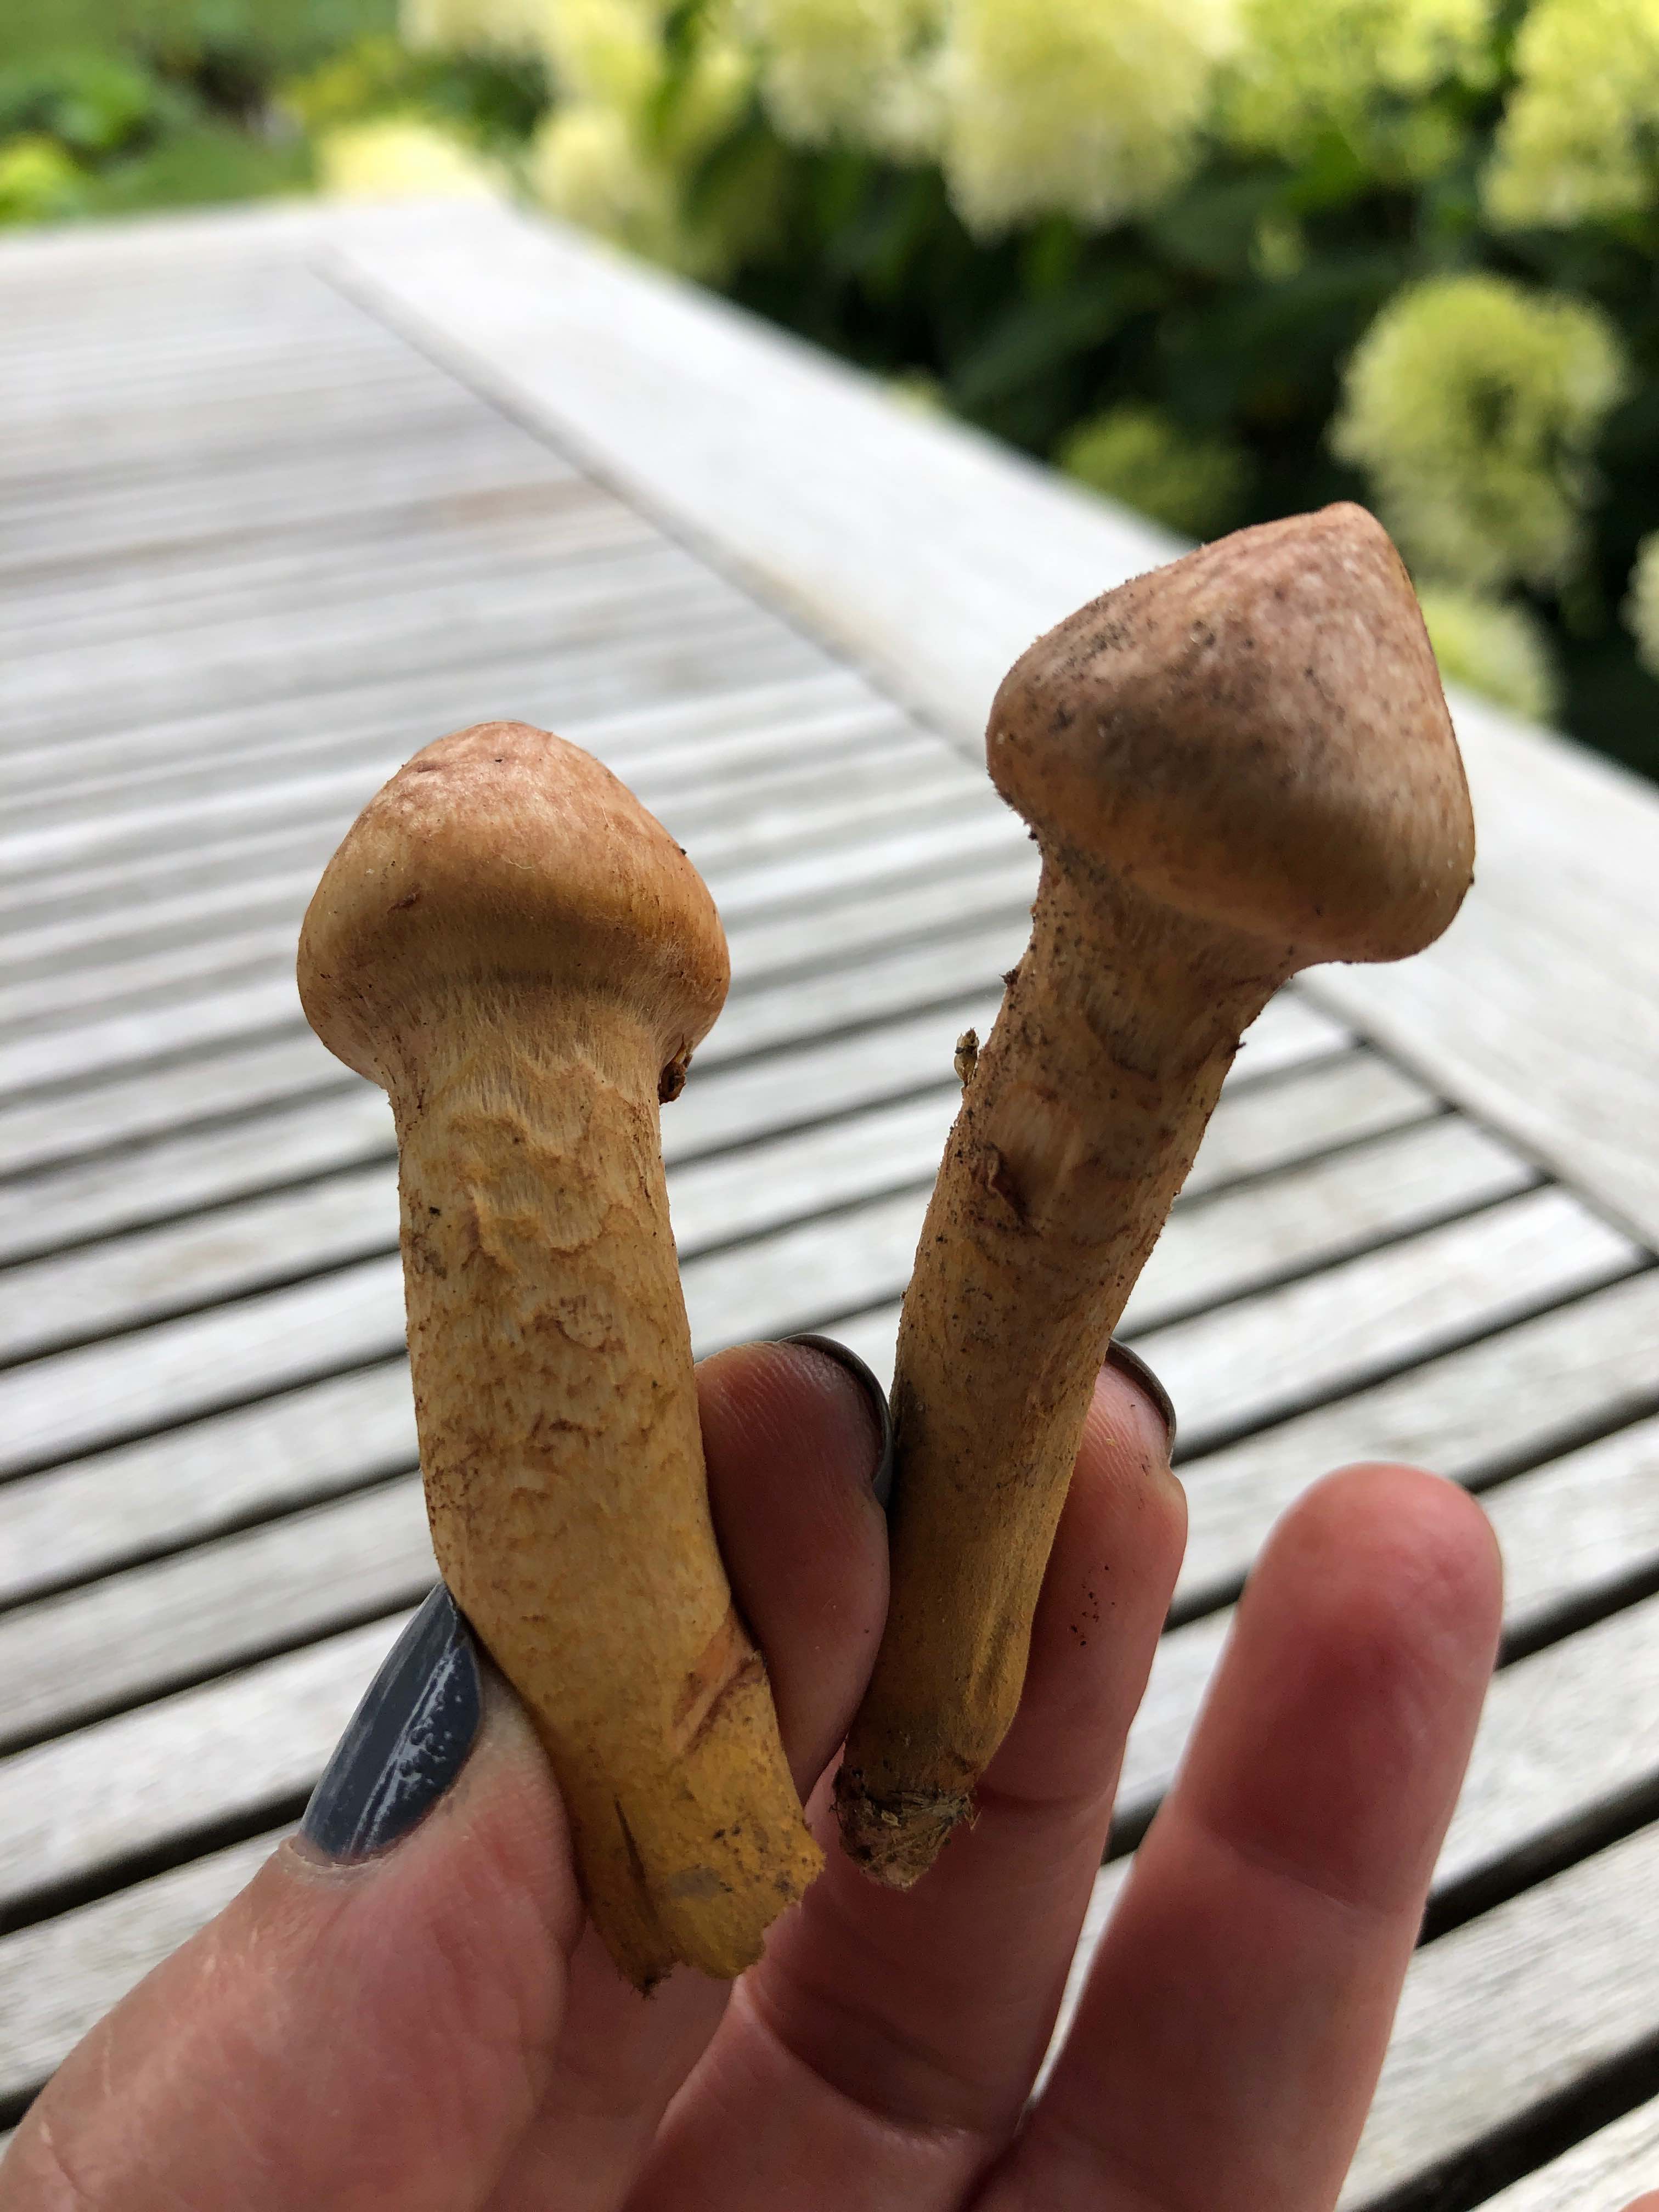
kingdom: Plantae
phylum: Bryophyta
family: Agaricomycetidae
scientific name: Agaricomycetidae
